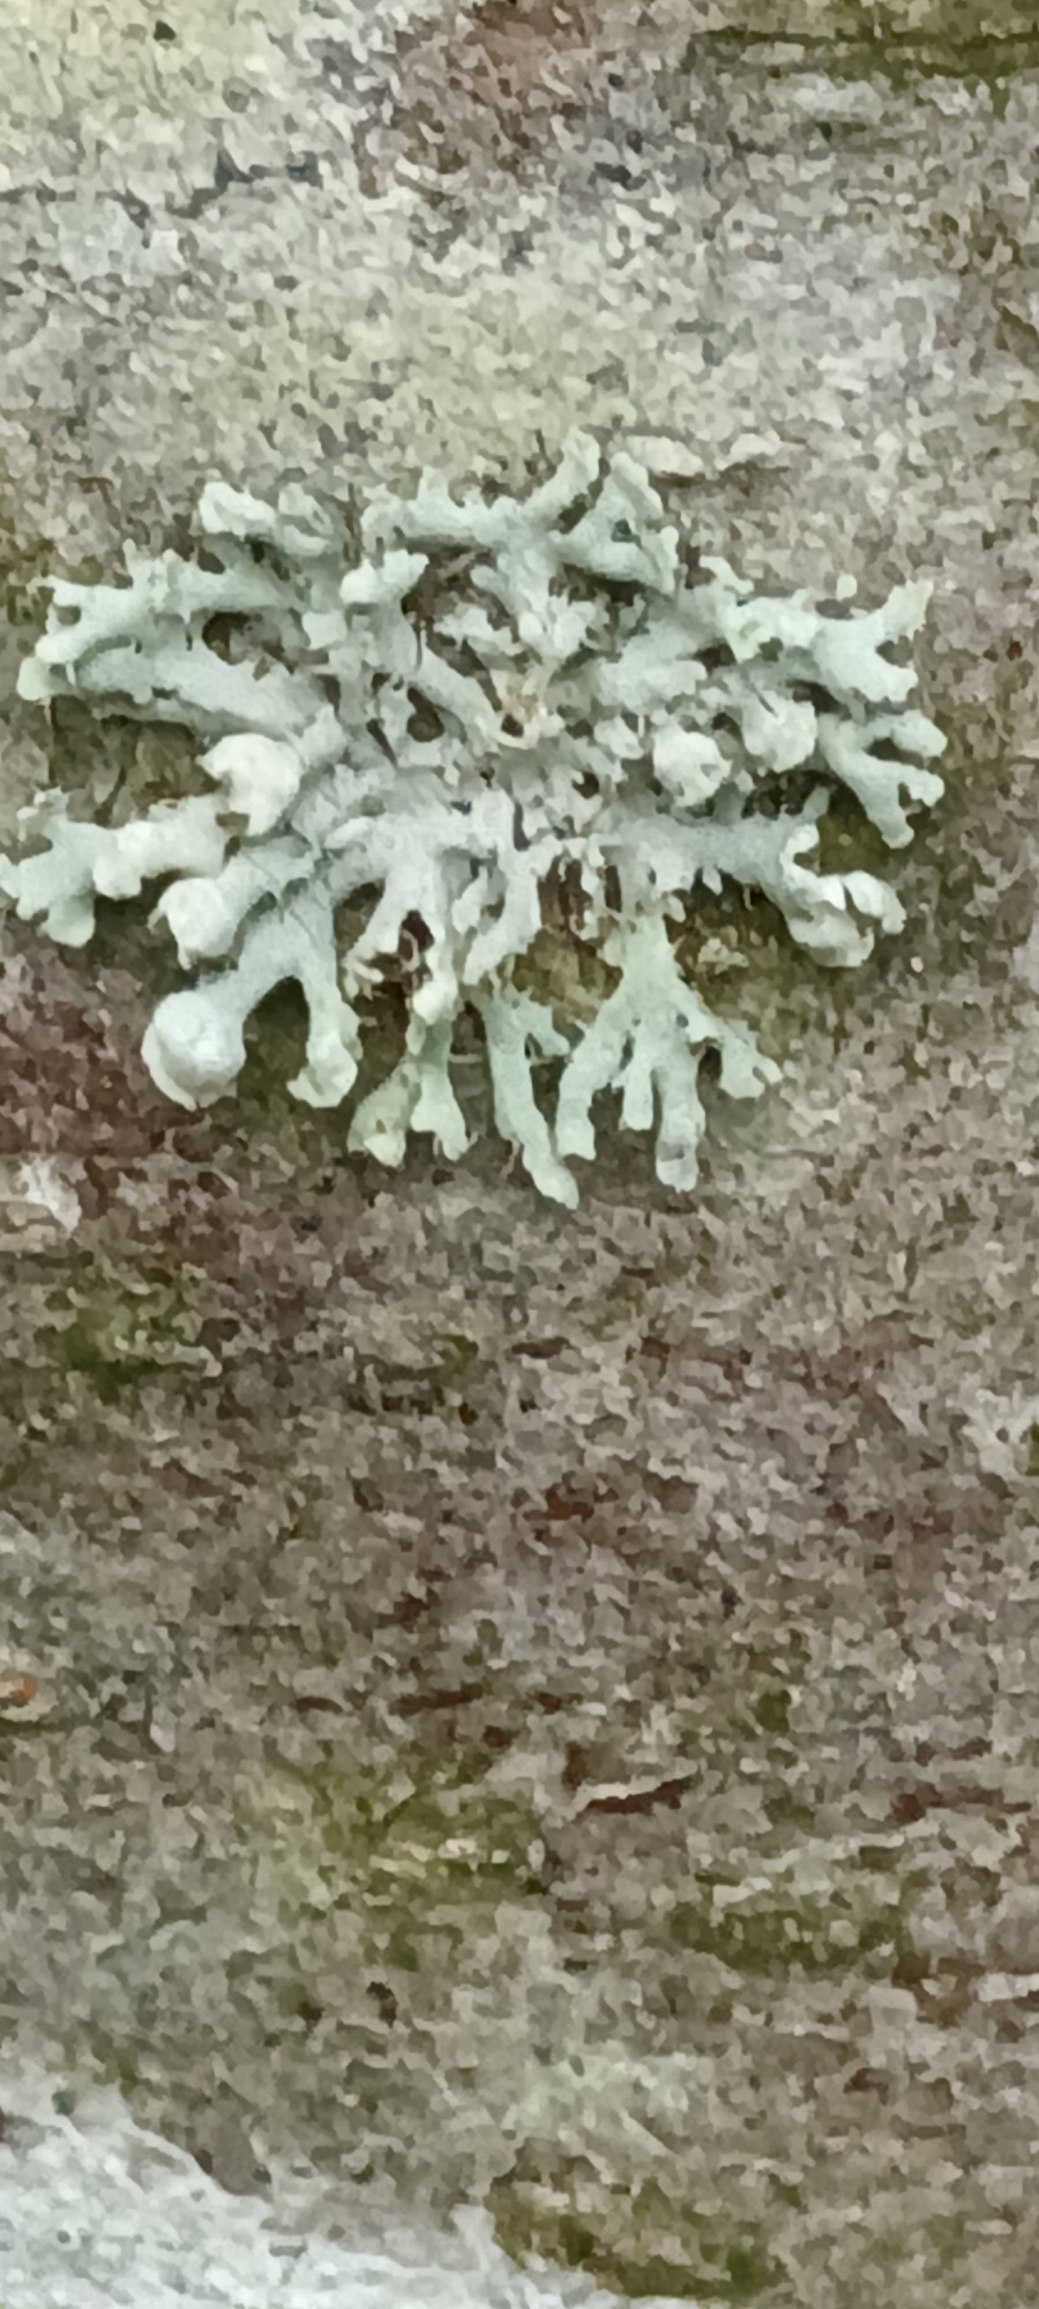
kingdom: Fungi
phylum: Ascomycota
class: Lecanoromycetes
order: Caliciales
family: Physciaceae
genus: Physcia
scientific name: Physcia adscendens
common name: Hætte-rosetlav
